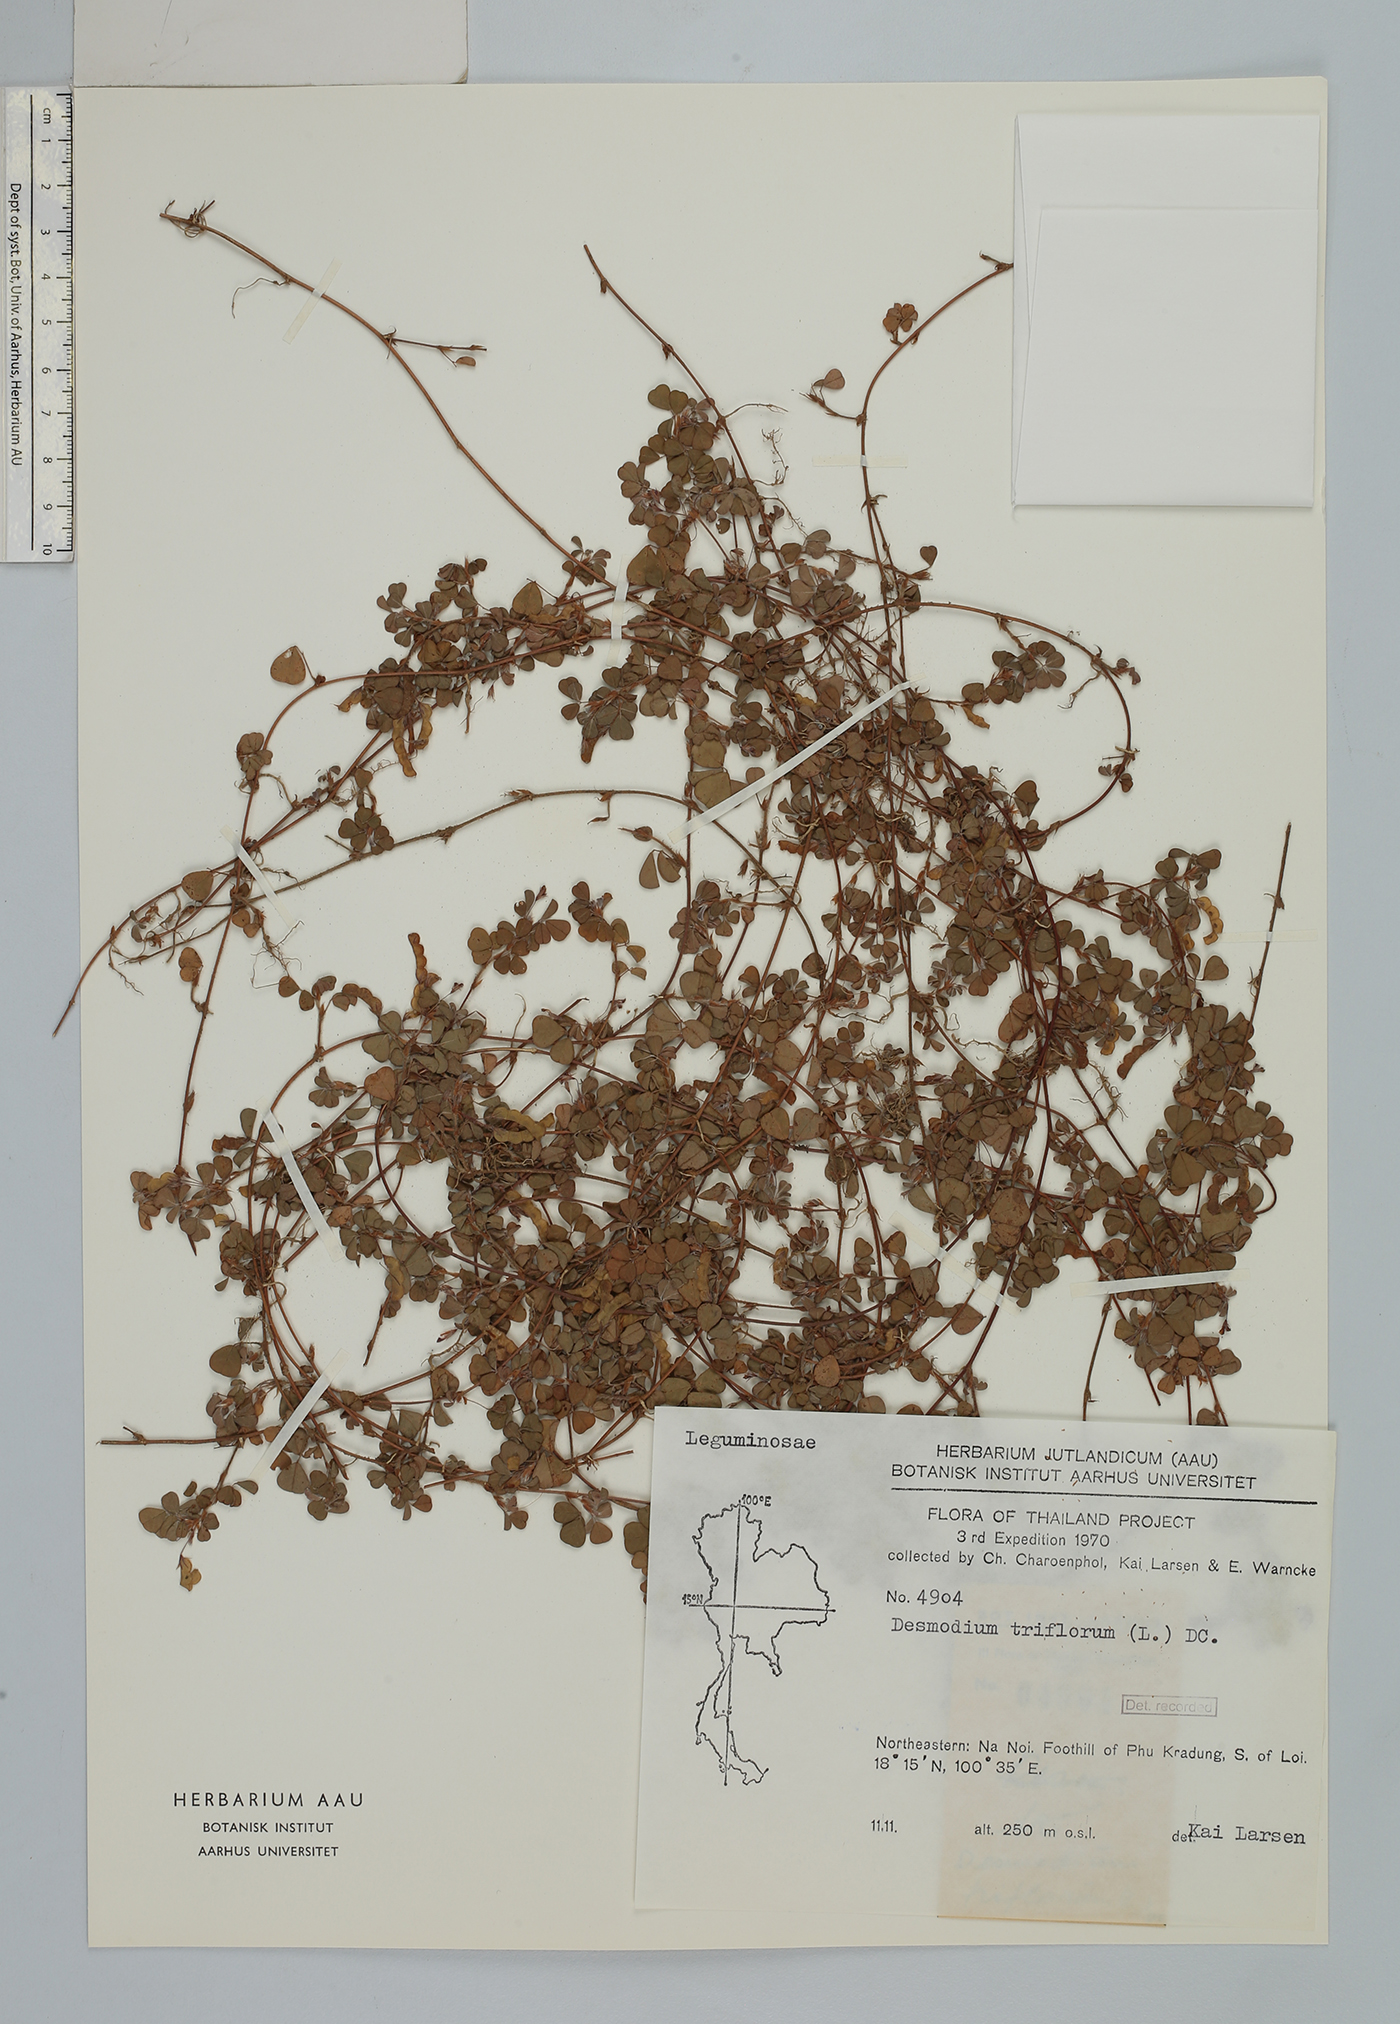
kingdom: Plantae
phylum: Tracheophyta
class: Magnoliopsida
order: Fabales
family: Fabaceae
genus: Grona
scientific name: Grona triflora
